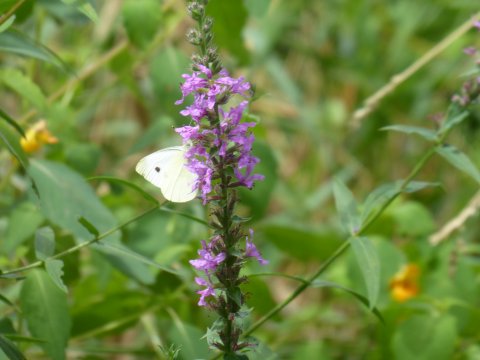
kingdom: Animalia
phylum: Arthropoda
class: Insecta
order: Lepidoptera
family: Pieridae
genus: Pieris
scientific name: Pieris rapae
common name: Cabbage White
